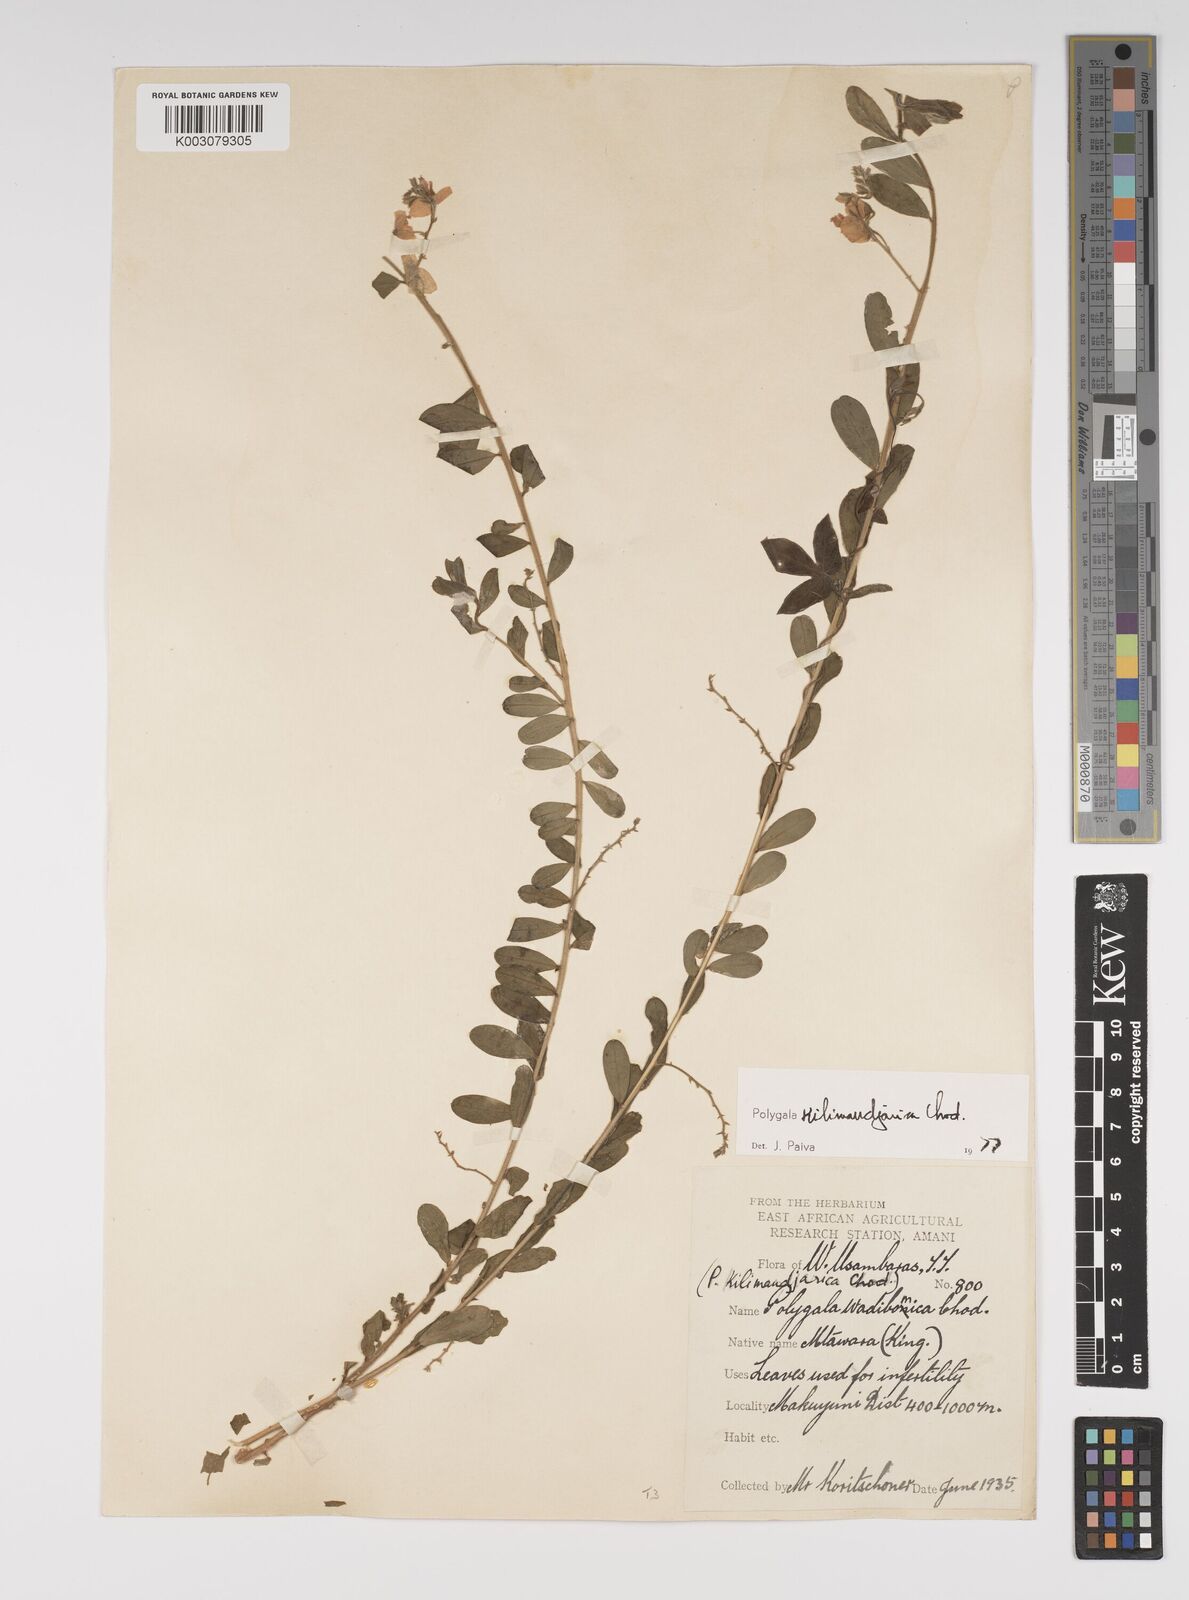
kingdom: Plantae
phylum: Tracheophyta
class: Magnoliopsida
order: Fabales
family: Polygalaceae
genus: Polygala
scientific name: Polygala kilimandjarica
